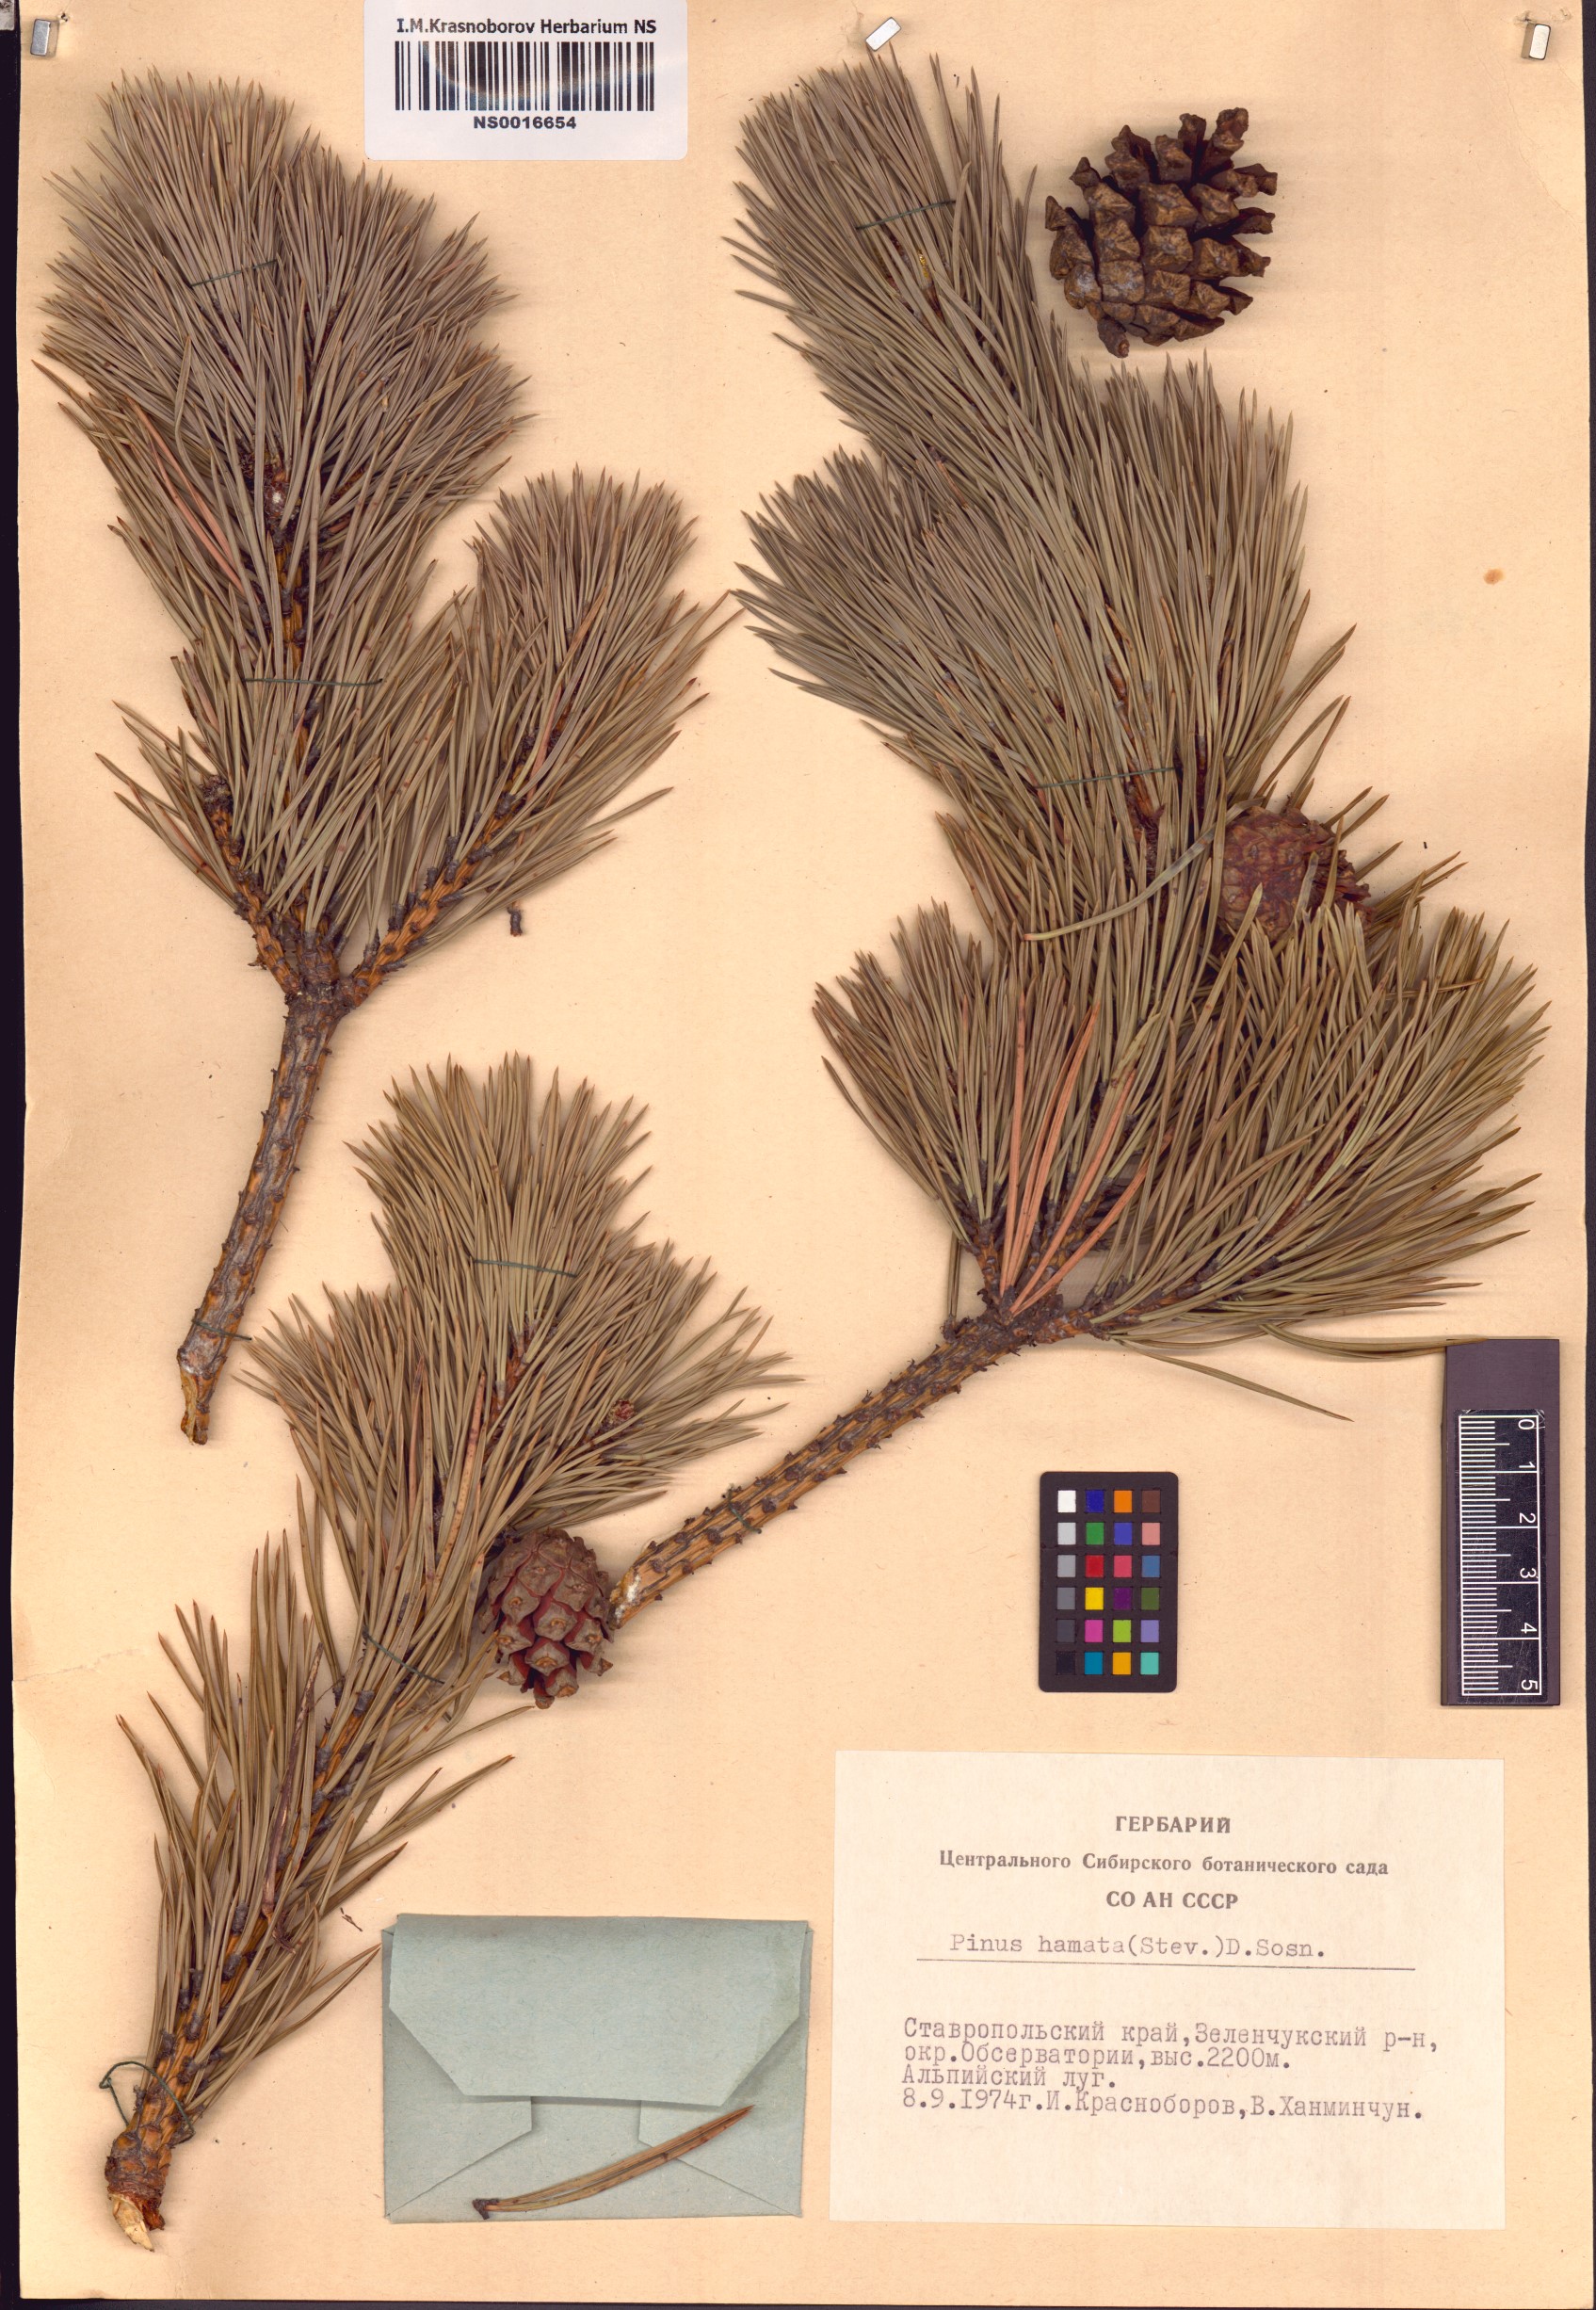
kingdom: Plantae
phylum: Tracheophyta
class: Pinopsida
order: Pinales
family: Pinaceae
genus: Pinus
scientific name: Pinus sylvestris
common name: Scots pine
